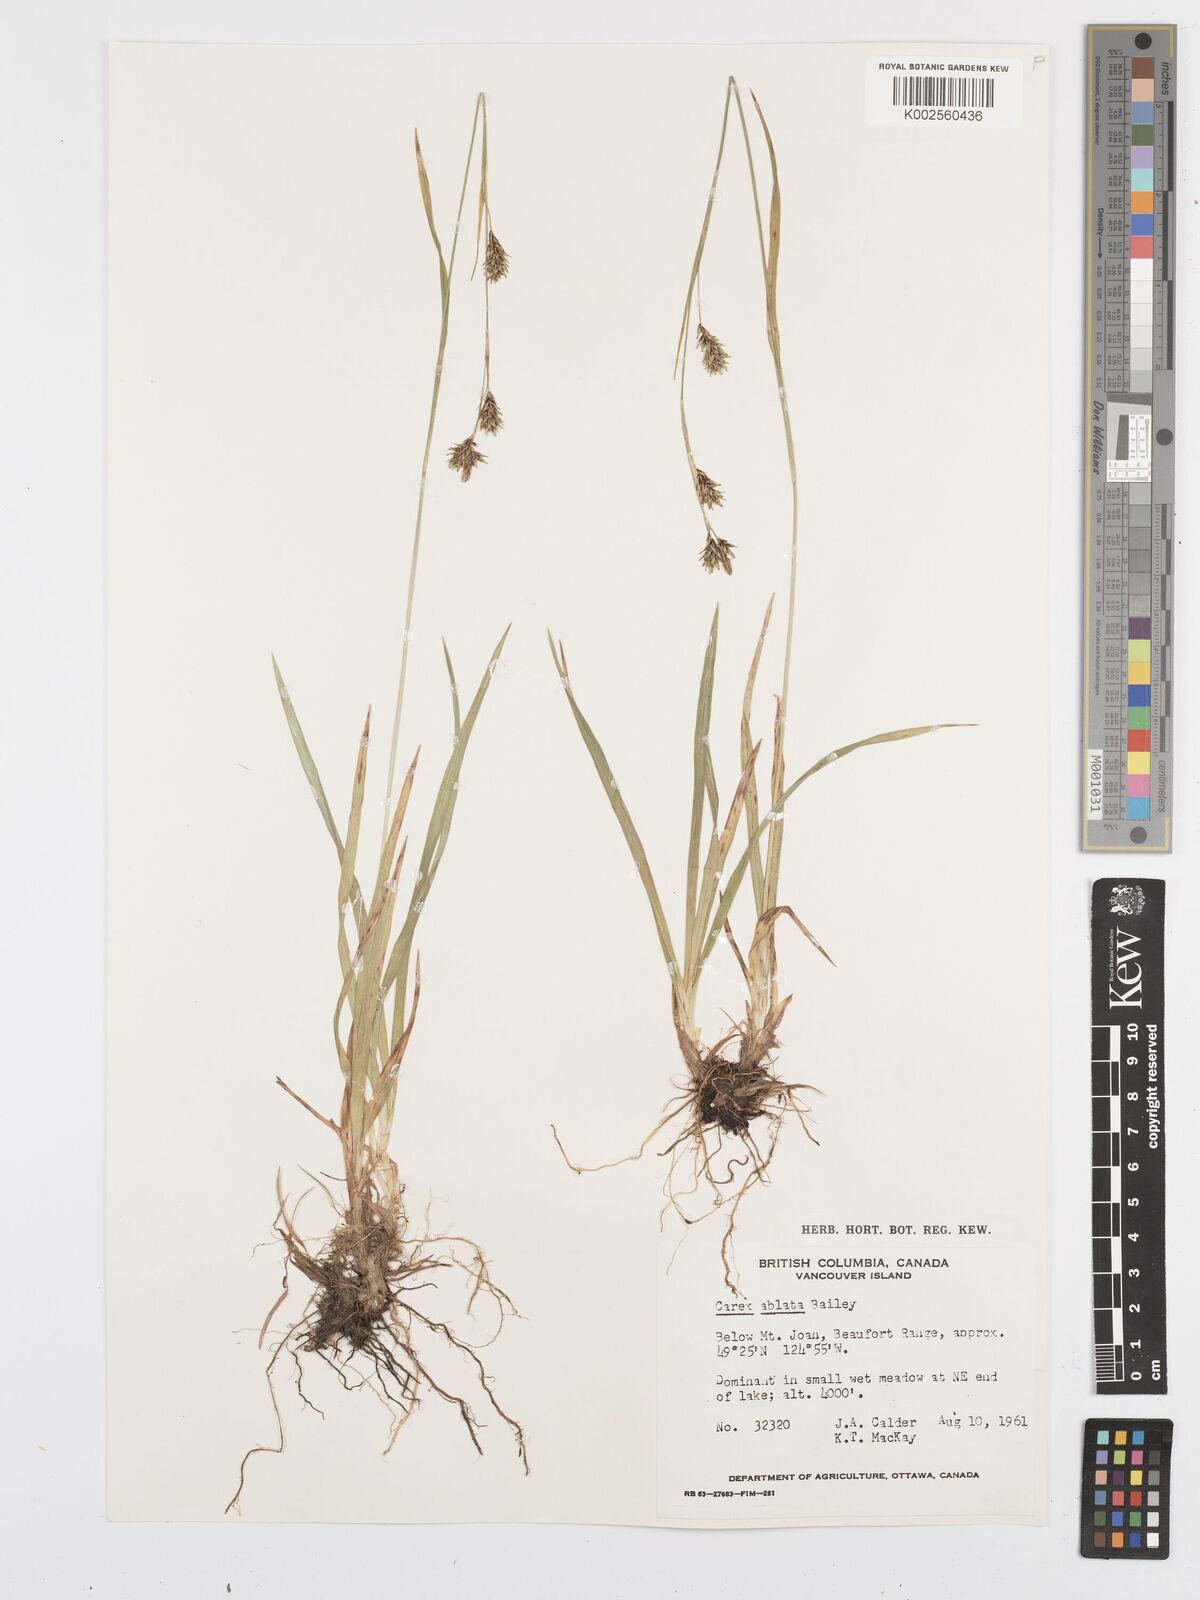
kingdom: Plantae
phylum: Tracheophyta
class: Liliopsida
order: Poales
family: Cyperaceae
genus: Carex
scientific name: Carex luzulina
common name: Spring sedge
